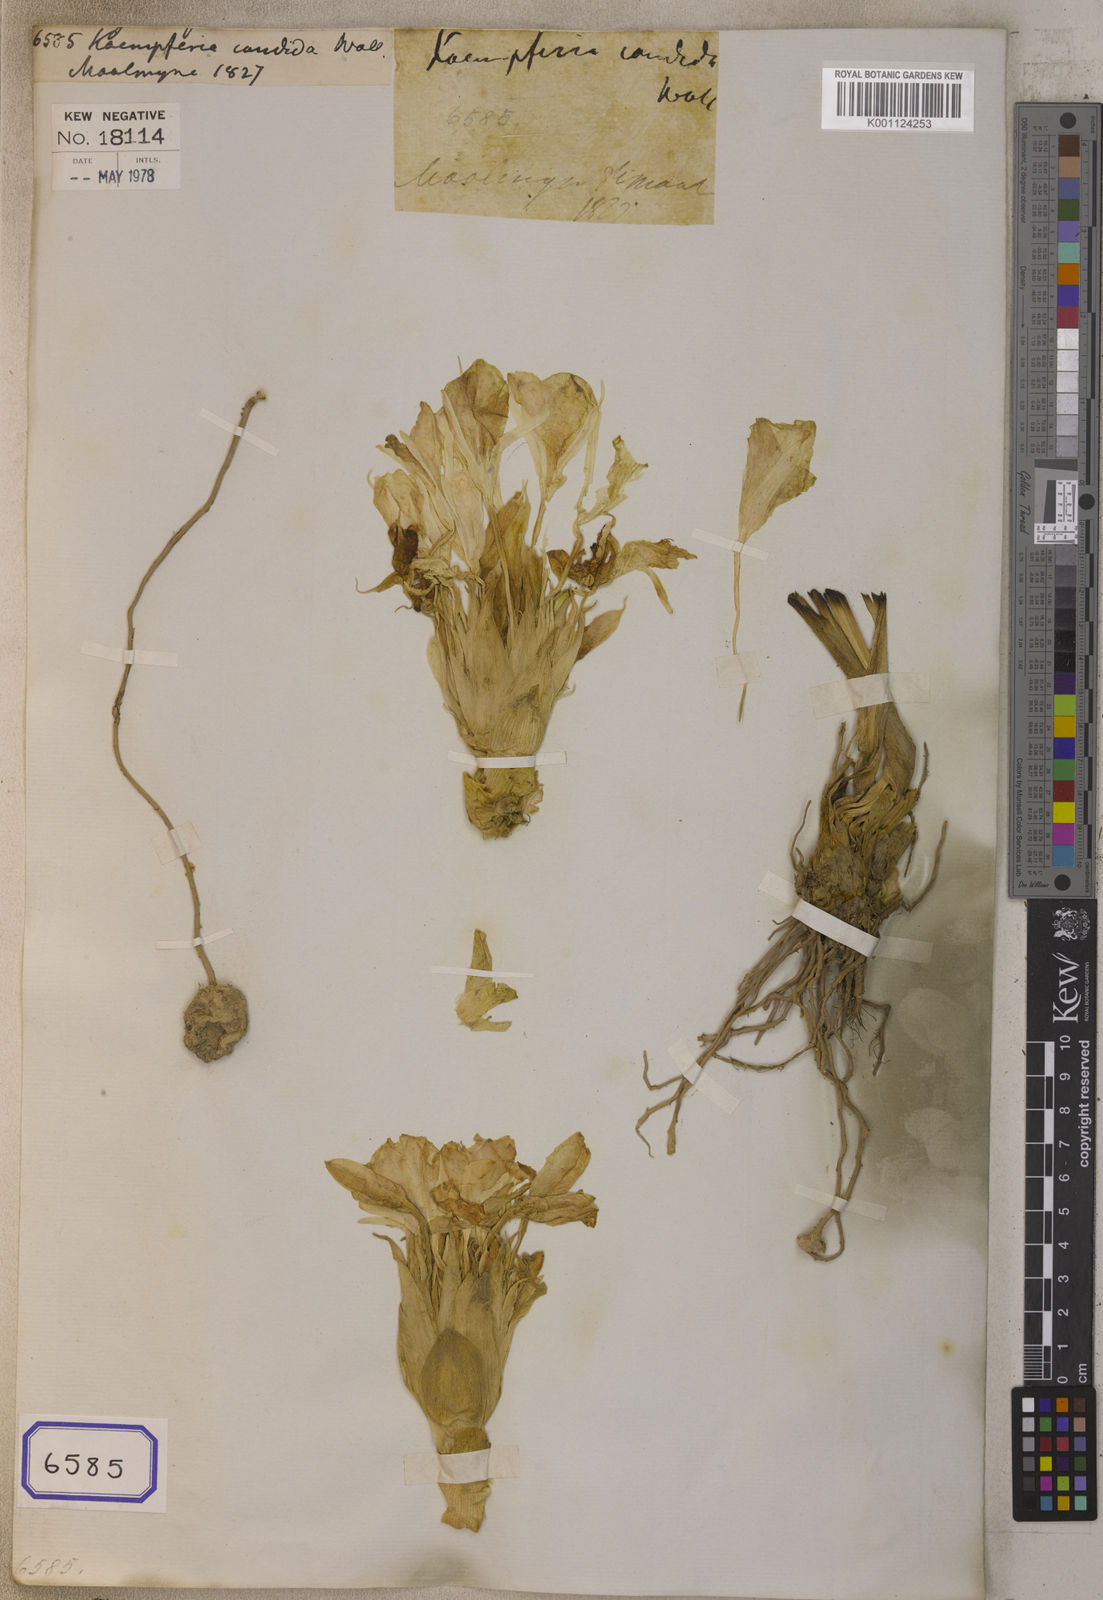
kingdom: Plantae
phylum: Tracheophyta
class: Liliopsida
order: Zingiberales
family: Zingiberaceae
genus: Curcuma
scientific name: Curcuma candida
